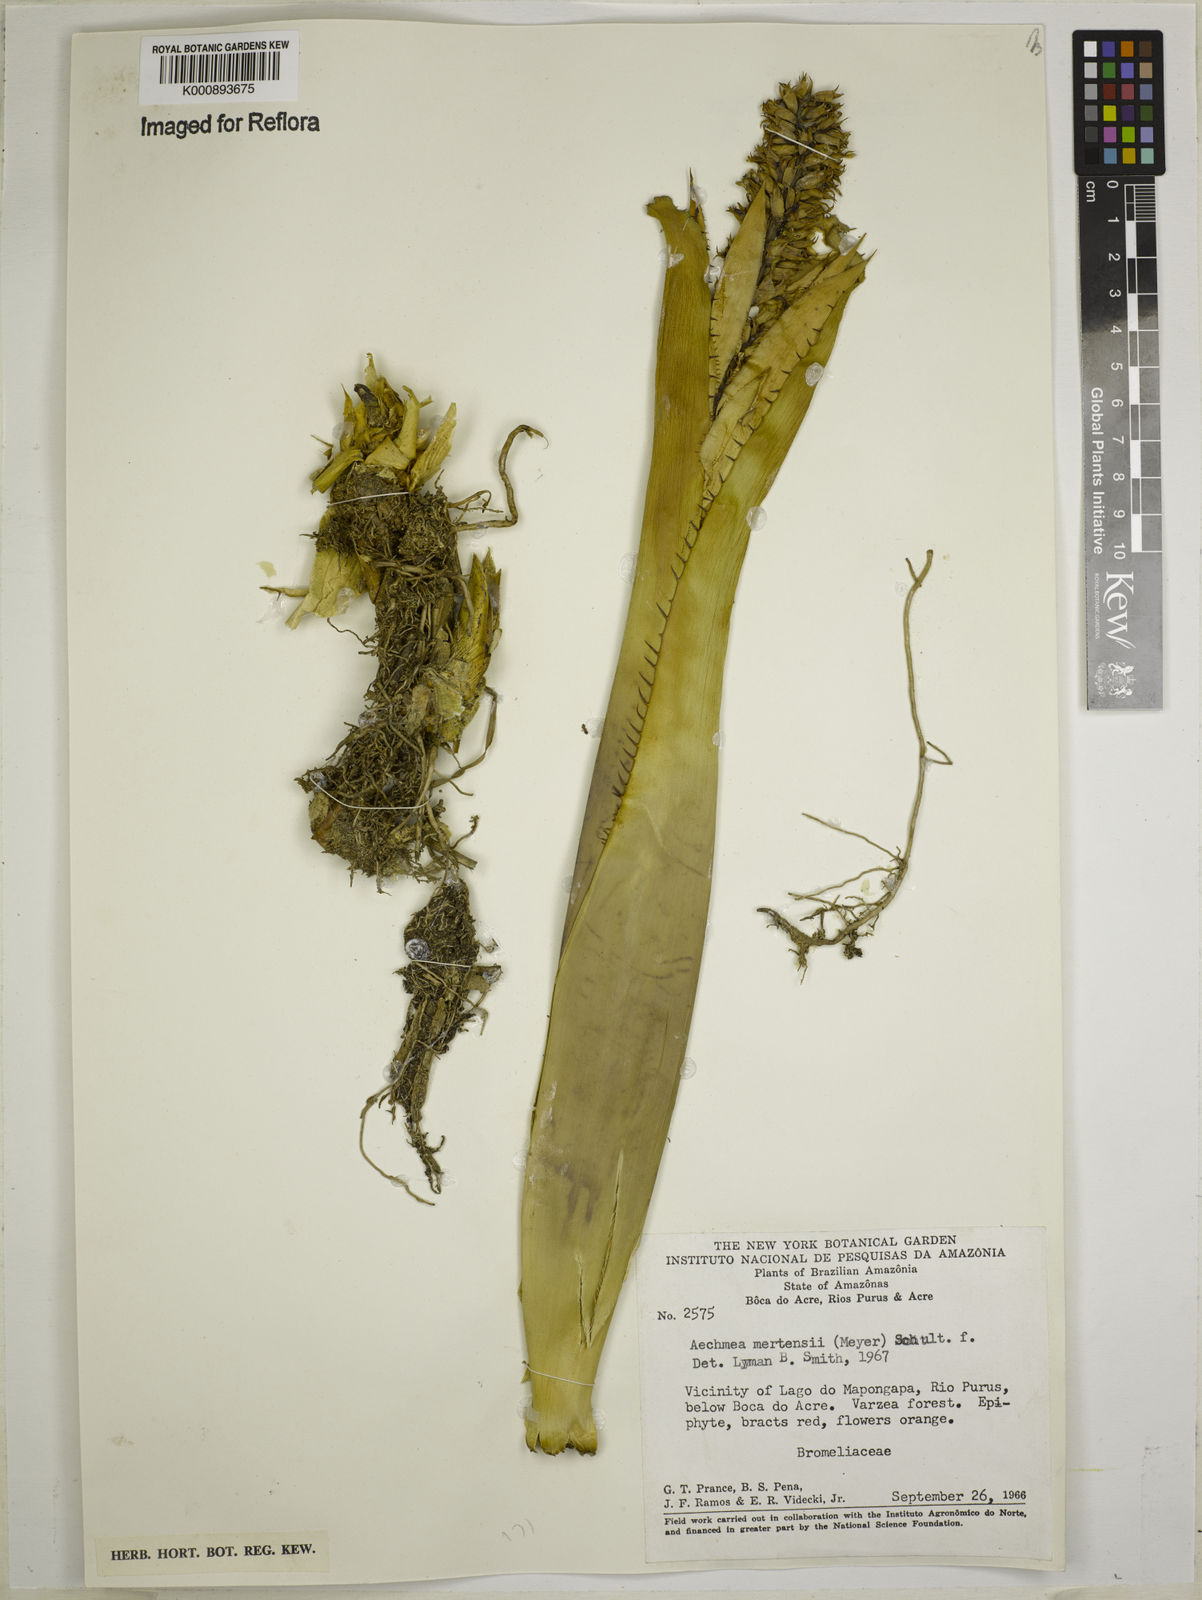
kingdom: Plantae
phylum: Tracheophyta
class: Liliopsida
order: Poales
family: Bromeliaceae
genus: Aechmea
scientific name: Aechmea mertensii
